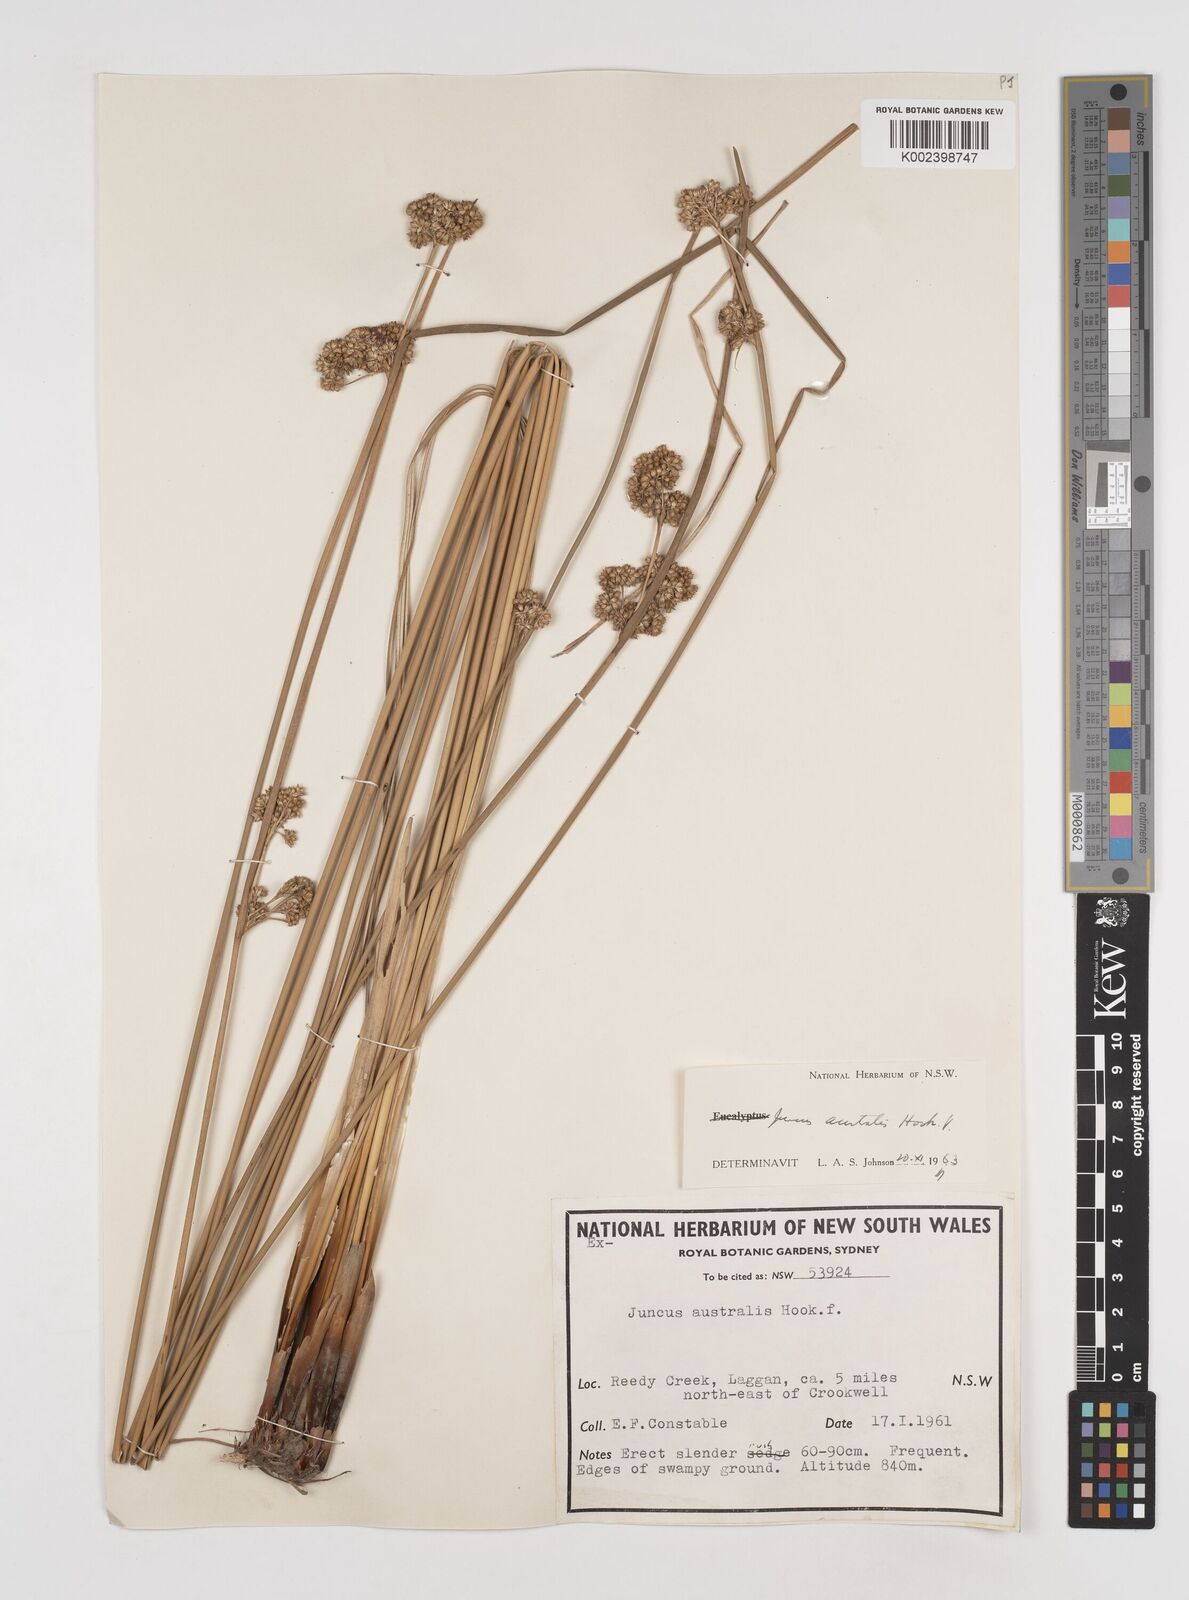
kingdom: Plantae
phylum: Tracheophyta
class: Liliopsida
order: Poales
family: Juncaceae
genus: Juncus
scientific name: Juncus australis
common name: Austral rush
